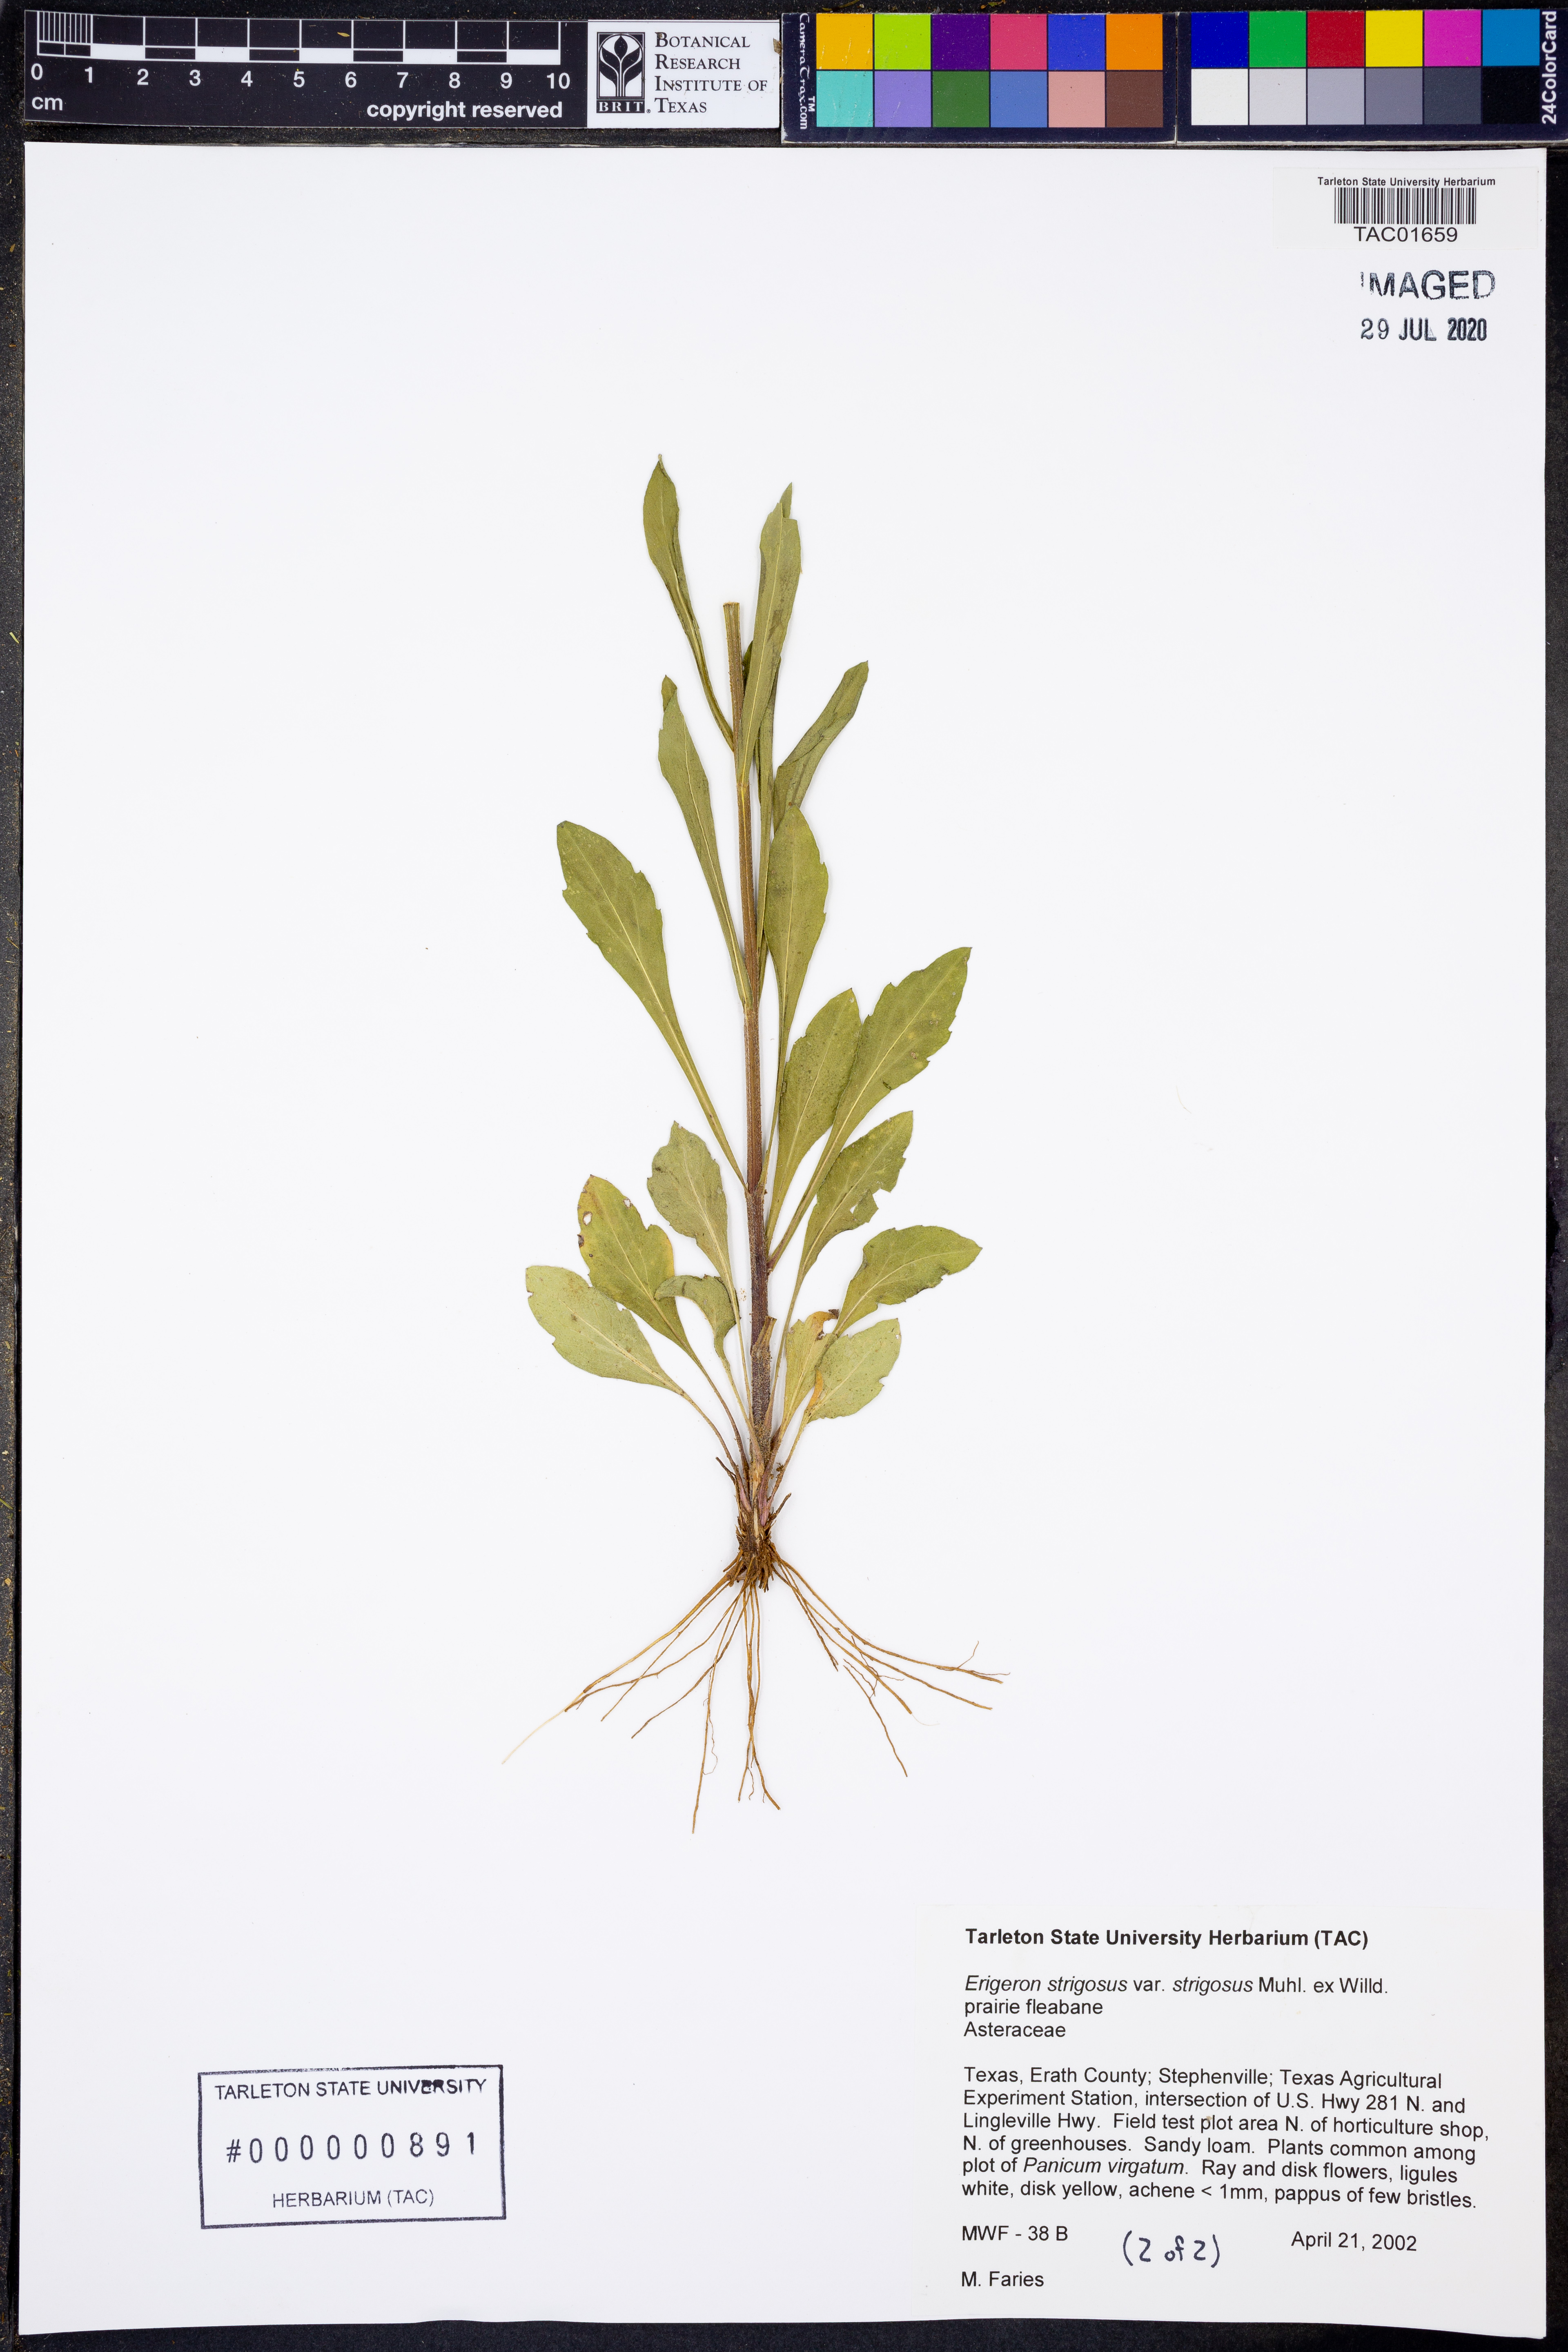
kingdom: Plantae
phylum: Tracheophyta
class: Magnoliopsida
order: Asterales
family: Asteraceae
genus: Erigeron
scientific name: Erigeron strigosus
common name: Common eastern fleabane
